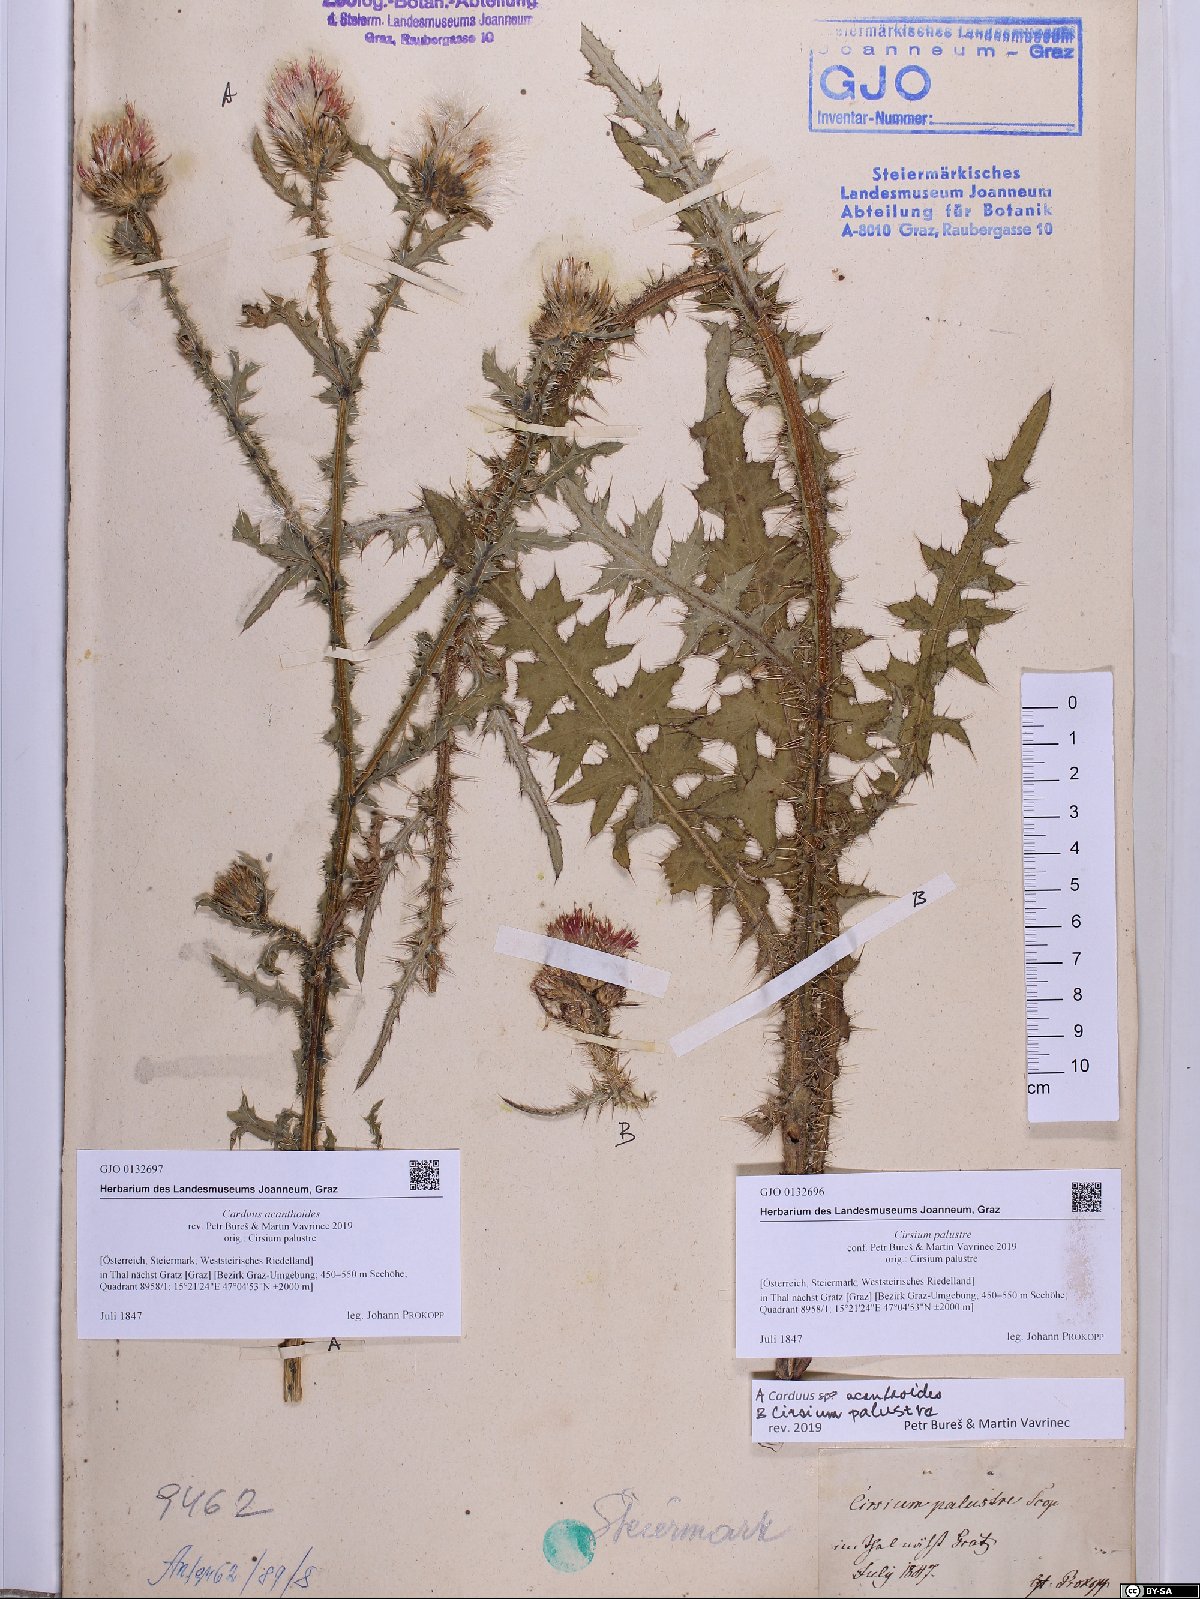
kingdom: Plantae
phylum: Tracheophyta
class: Magnoliopsida
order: Asterales
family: Asteraceae
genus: Cirsium
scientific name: Cirsium palustre
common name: Marsh thistle
